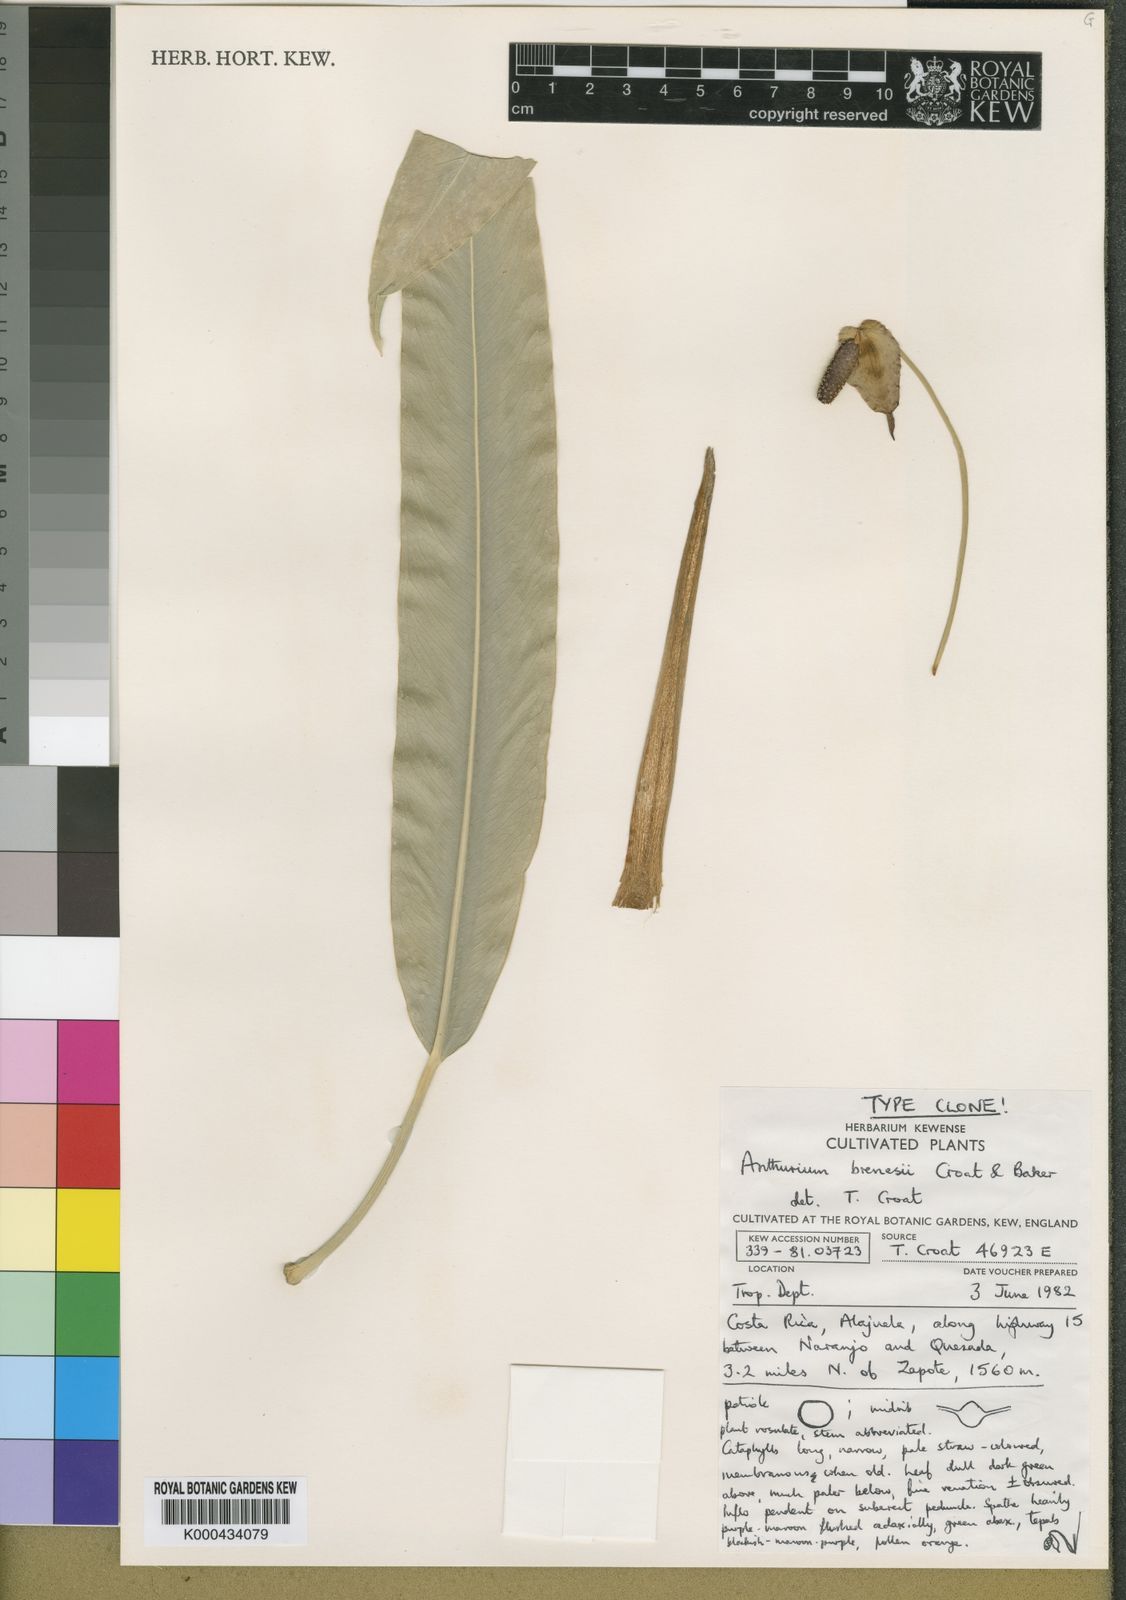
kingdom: Plantae
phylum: Tracheophyta
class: Liliopsida
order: Alismatales
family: Araceae
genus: Anthurium
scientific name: Anthurium brenesii
